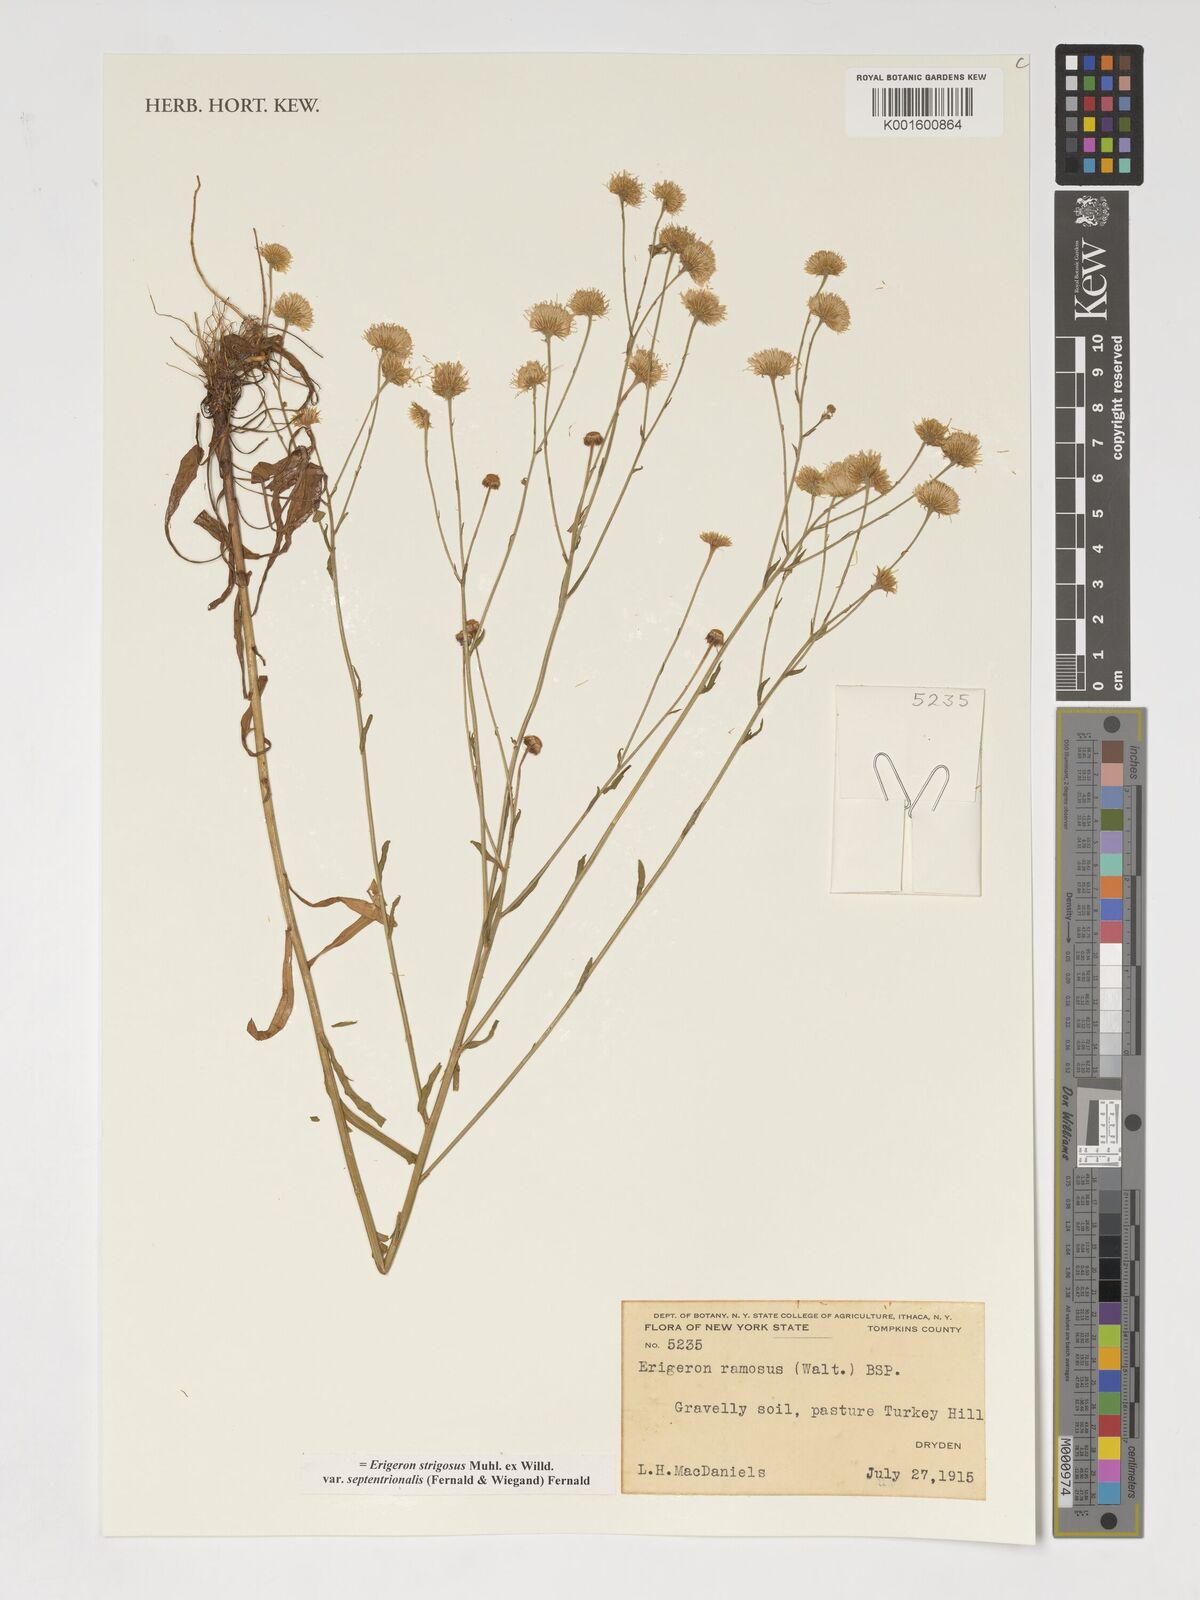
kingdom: Plantae
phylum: Tracheophyta
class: Magnoliopsida
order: Asterales
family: Asteraceae
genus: Erigeron
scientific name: Erigeron strigosus
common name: Common eastern fleabane
